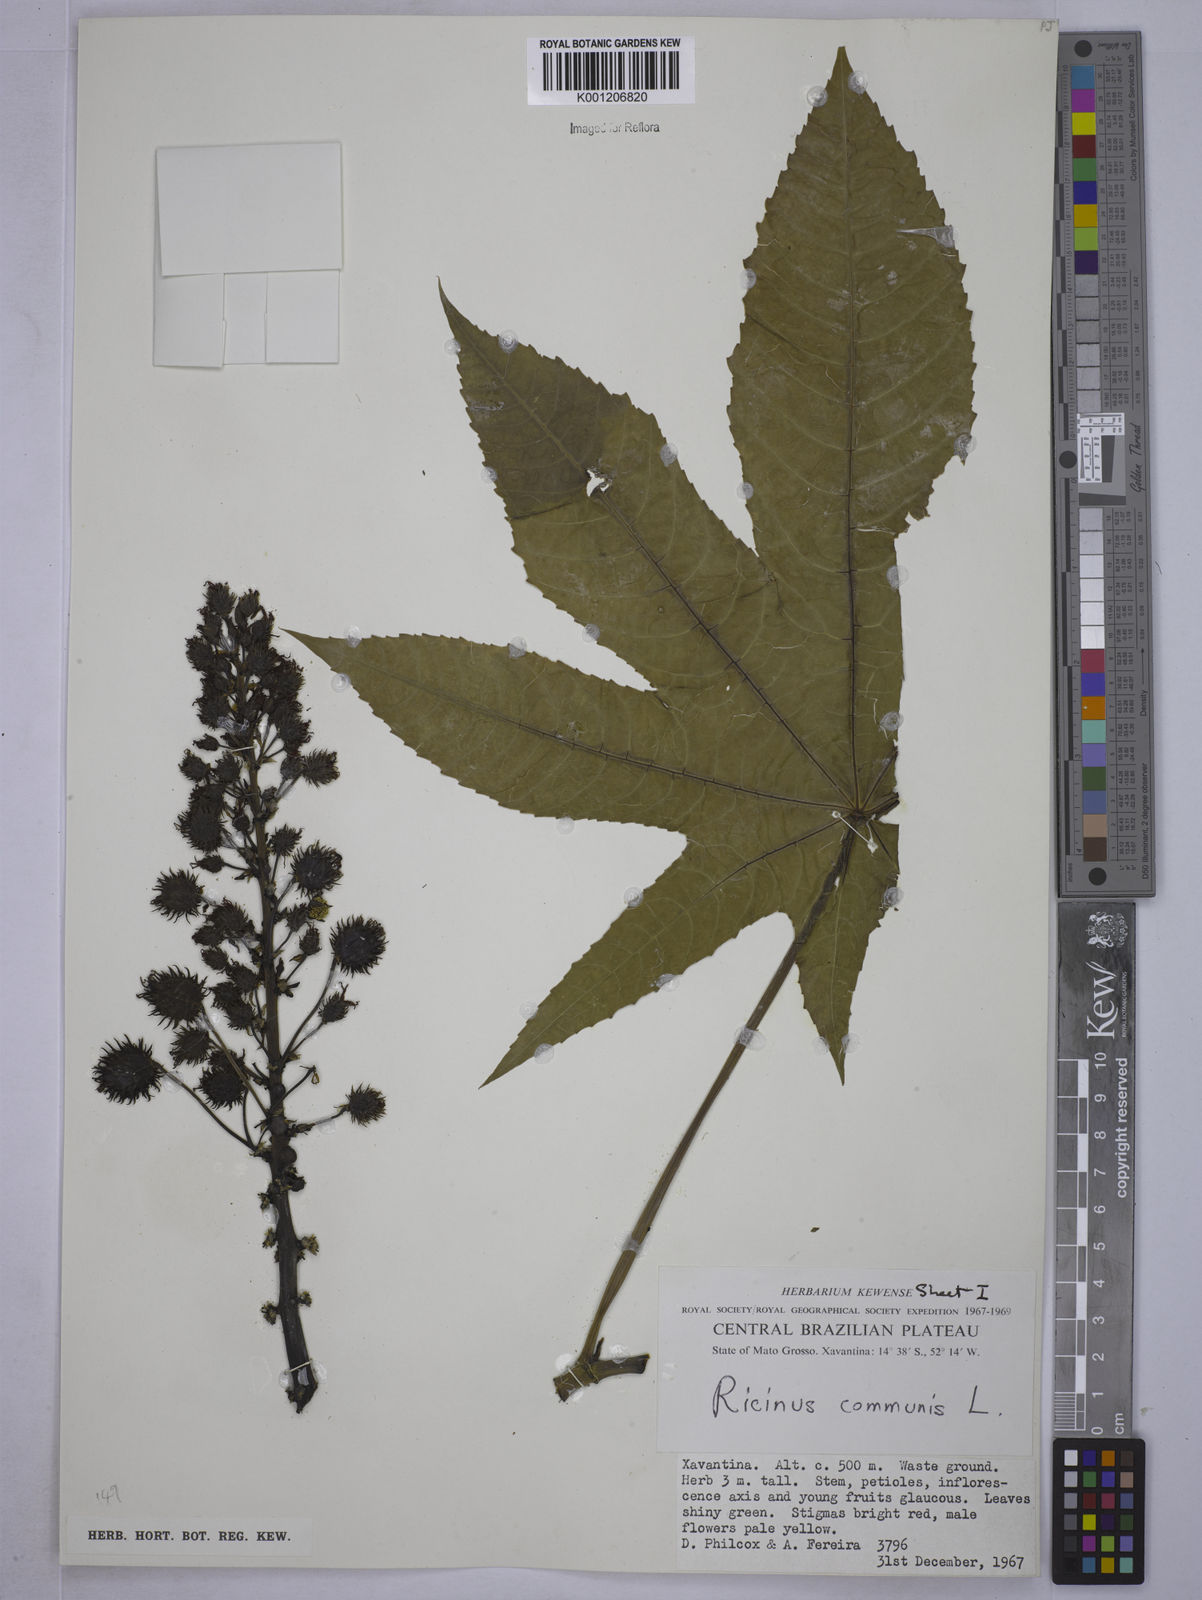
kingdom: Plantae
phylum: Tracheophyta
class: Magnoliopsida
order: Malpighiales
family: Euphorbiaceae
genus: Ricinus
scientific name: Ricinus communis
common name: Castor-oil-plant
